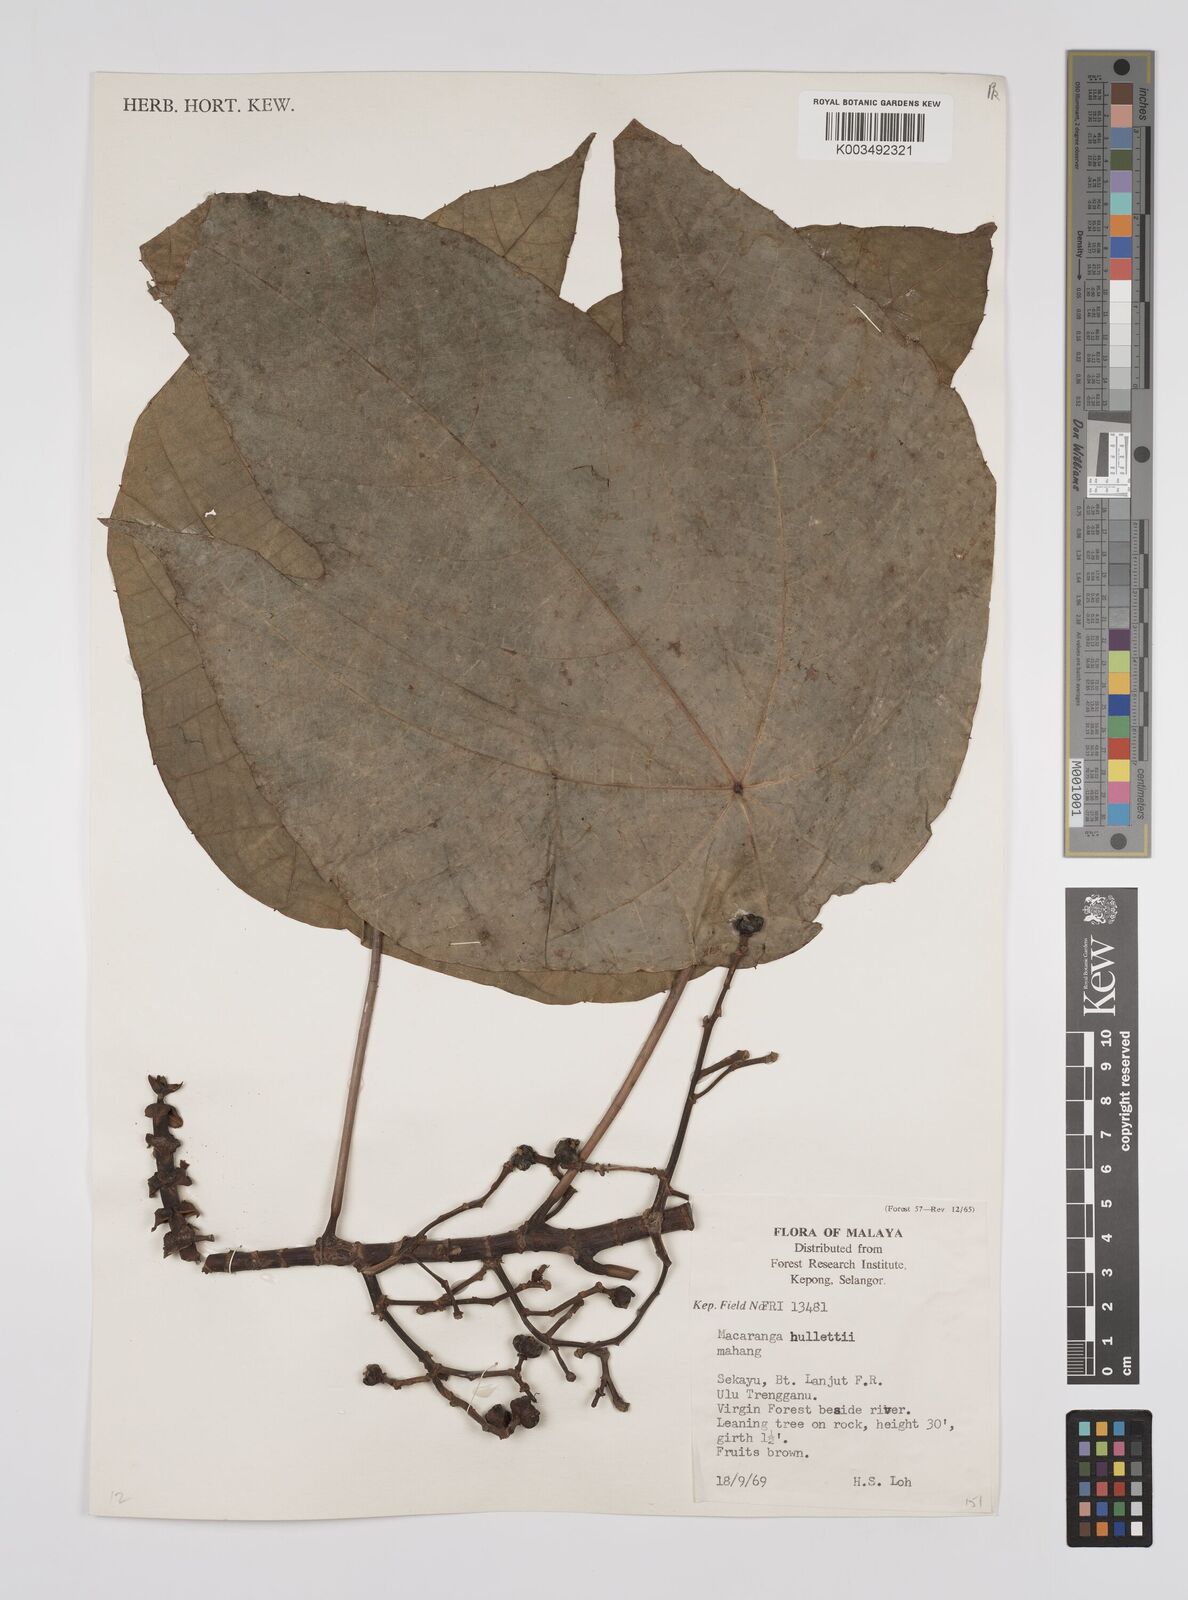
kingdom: Plantae
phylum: Tracheophyta
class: Magnoliopsida
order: Malpighiales
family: Euphorbiaceae
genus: Macaranga
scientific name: Macaranga hullettii
